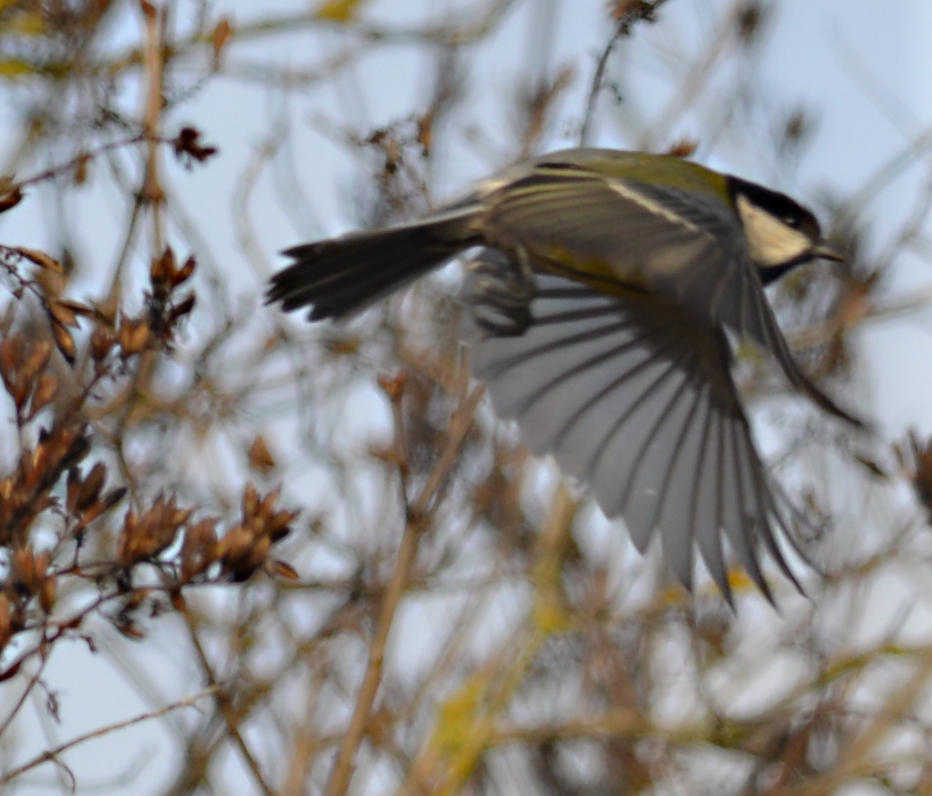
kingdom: Animalia
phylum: Chordata
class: Aves
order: Passeriformes
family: Paridae
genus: Parus
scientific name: Parus major
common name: Great tit
